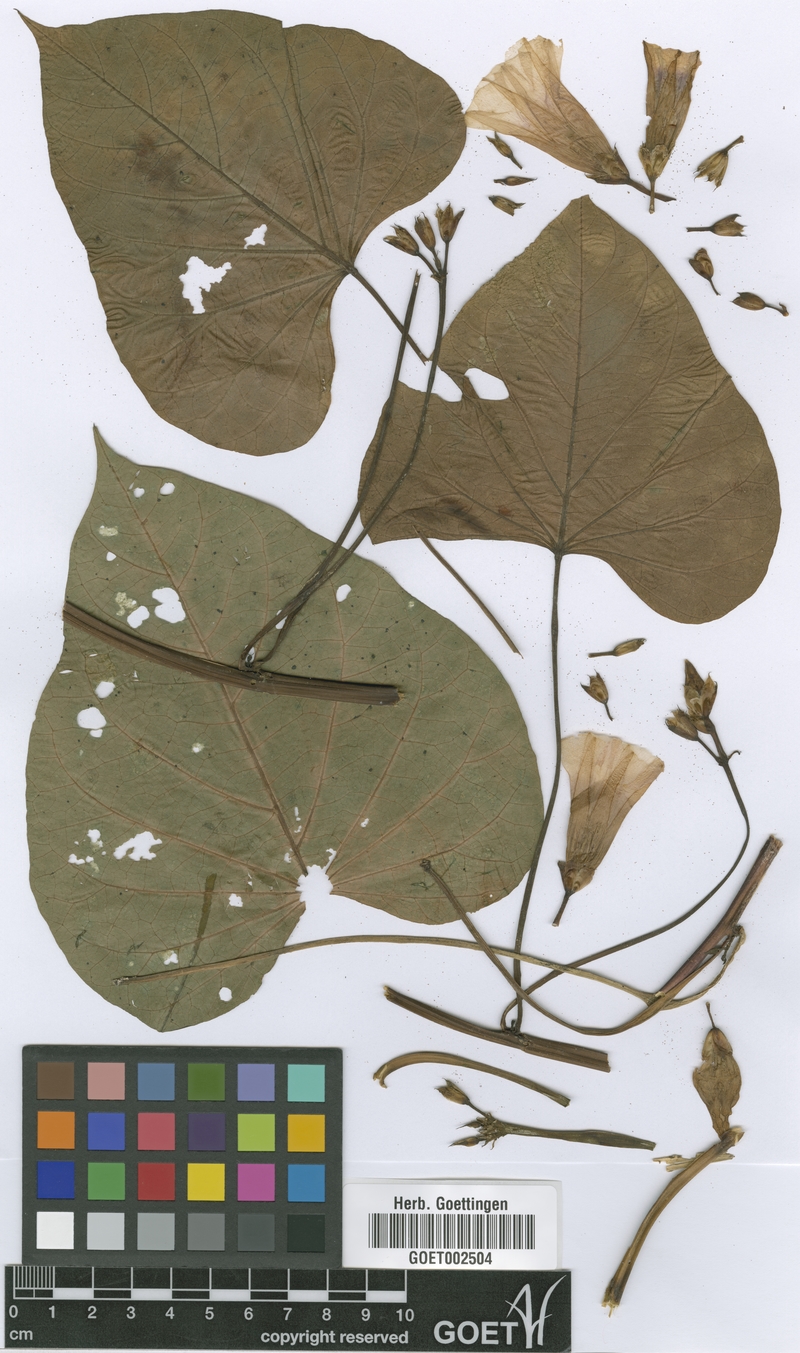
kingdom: Plantae
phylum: Tracheophyta
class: Magnoliopsida
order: Solanales
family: Convolvulaceae
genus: Ipomoea
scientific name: Ipomoea batatas
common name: Sweet-potato
